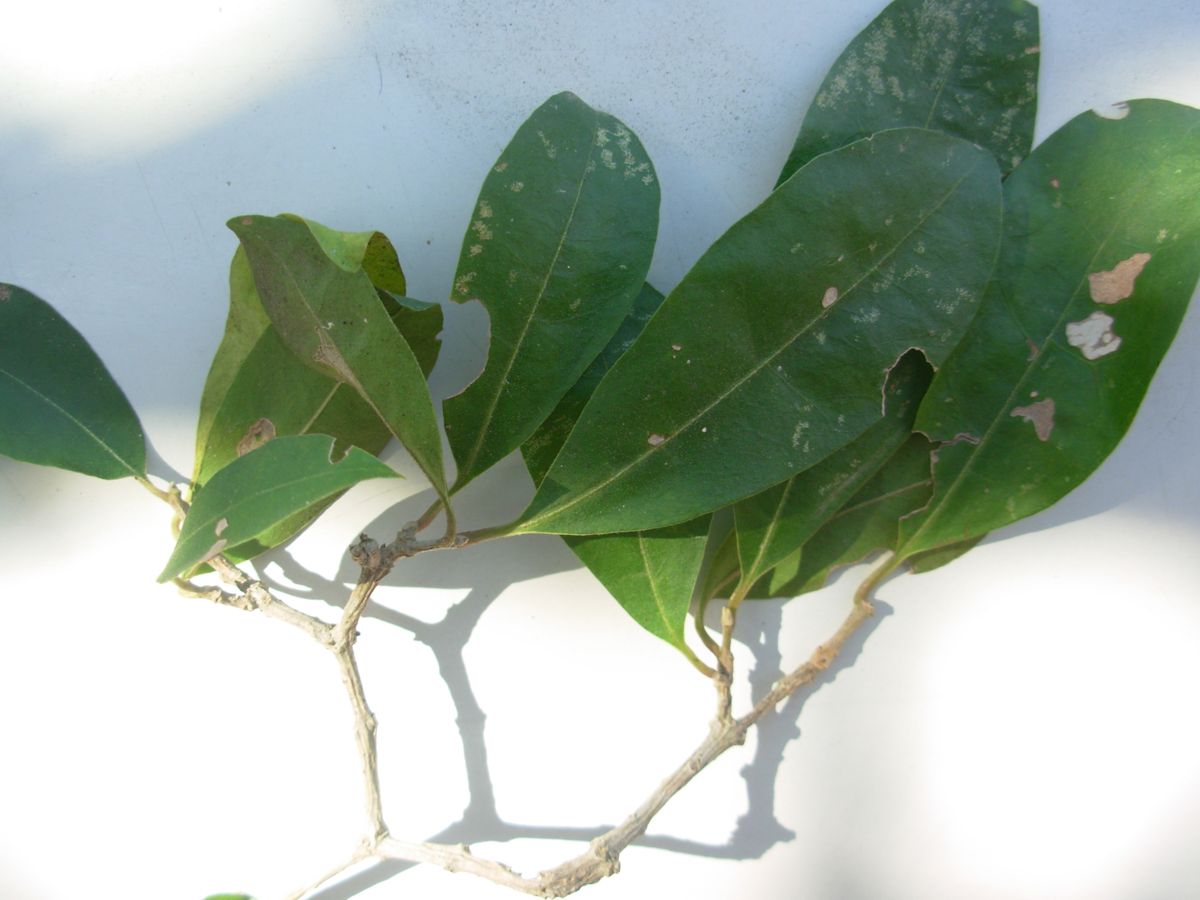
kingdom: Plantae
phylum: Tracheophyta
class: Magnoliopsida
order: Santalales
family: Schoepfiaceae
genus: Schoepfia
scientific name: Schoepfia
